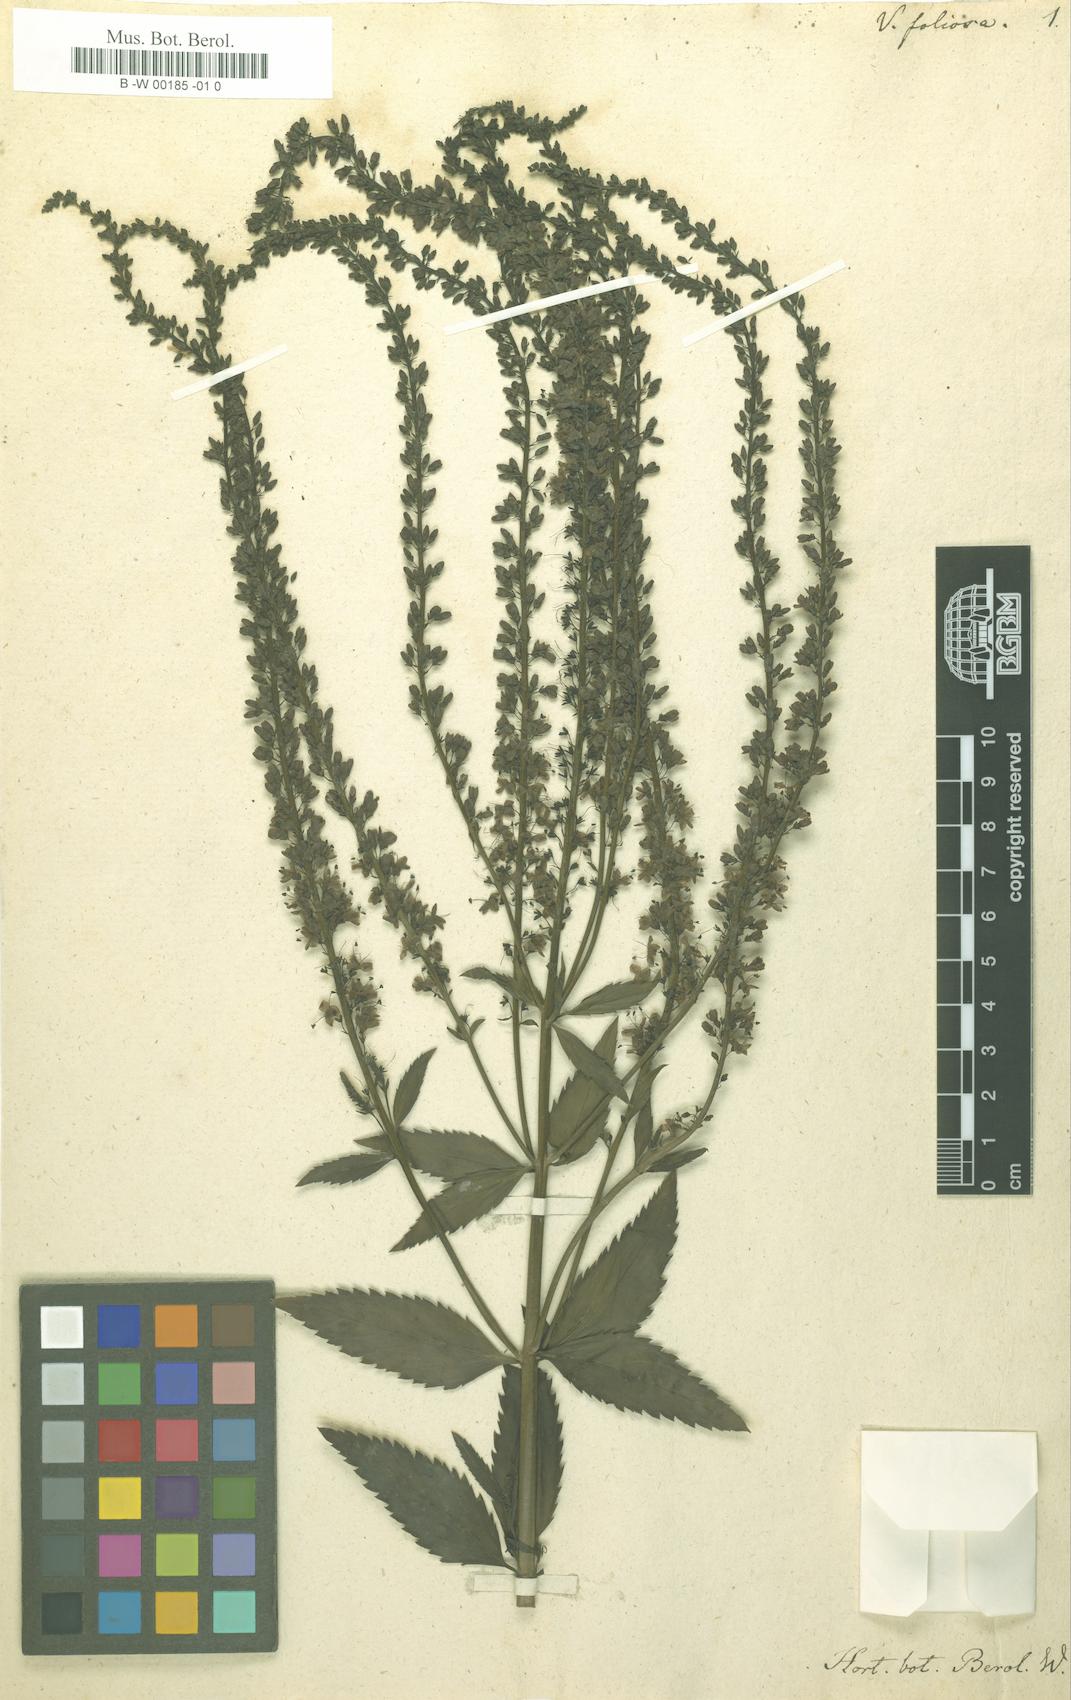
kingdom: Plantae
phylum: Tracheophyta
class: Magnoliopsida
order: Lamiales
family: Plantaginaceae
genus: Veronica
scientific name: Veronica spuria
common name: Bastard speedwell
